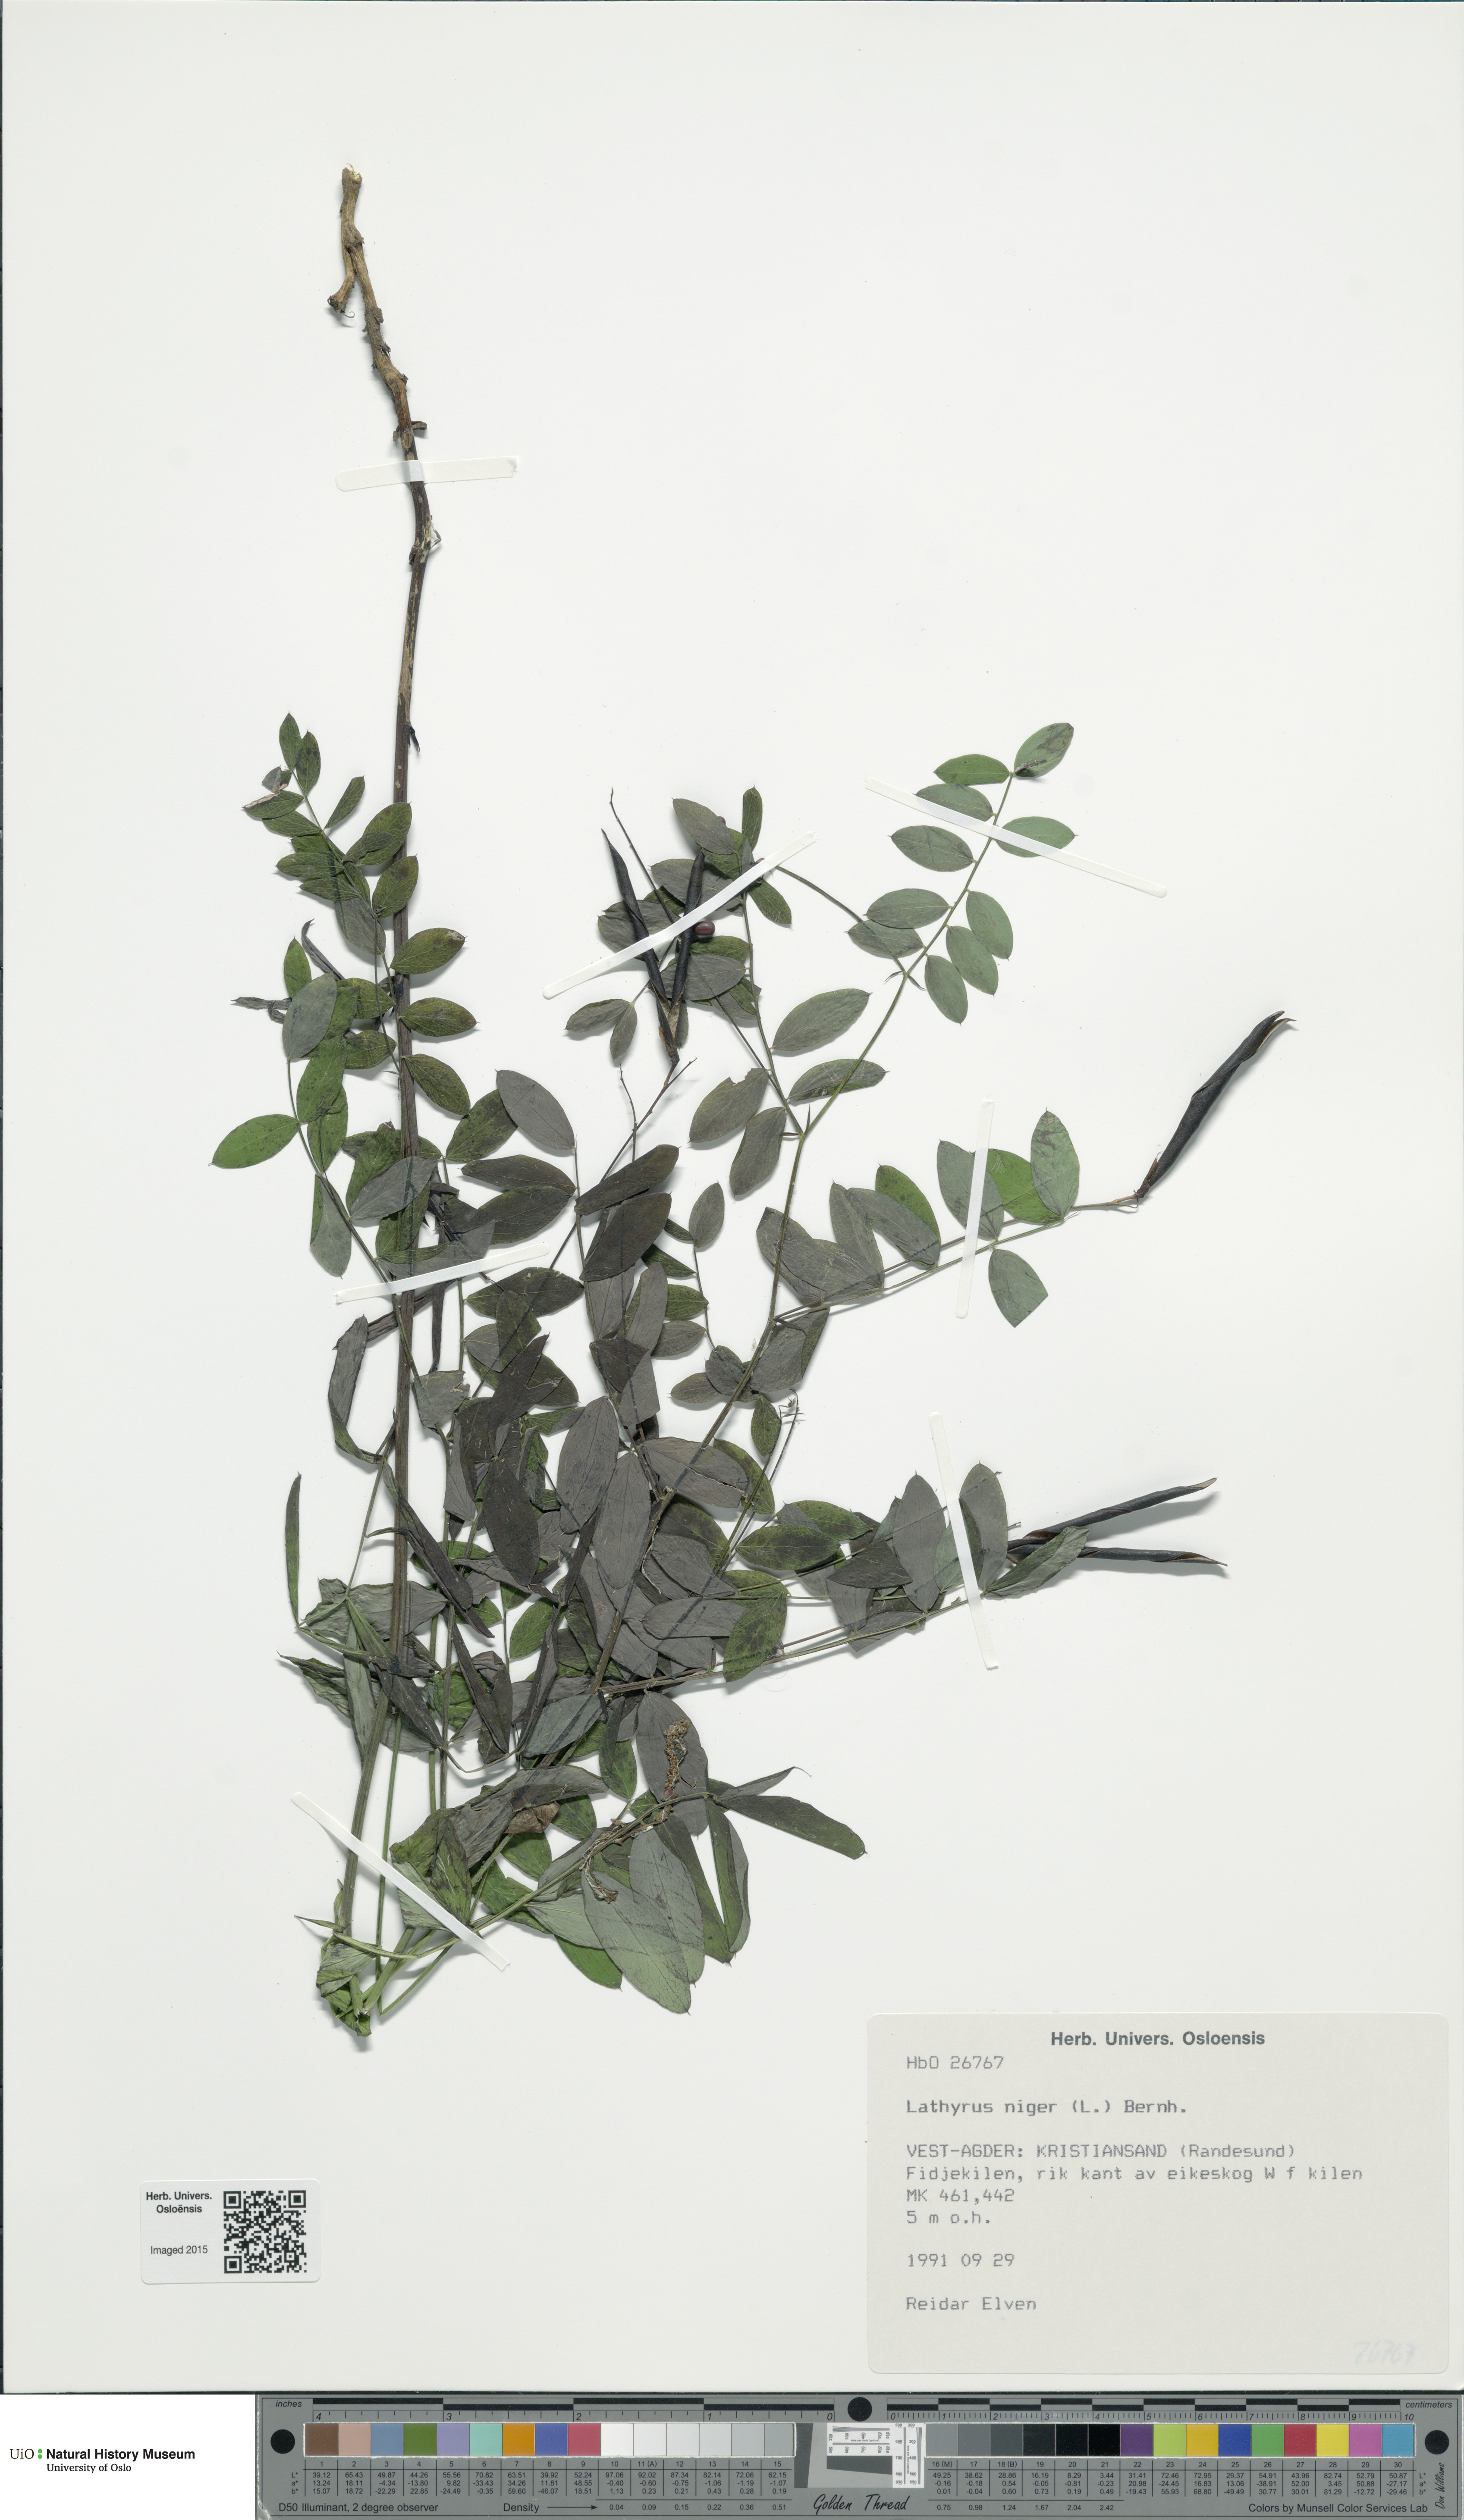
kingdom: Plantae
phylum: Tracheophyta
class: Magnoliopsida
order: Fabales
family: Fabaceae
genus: Lathyrus
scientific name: Lathyrus niger
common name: Black pea
